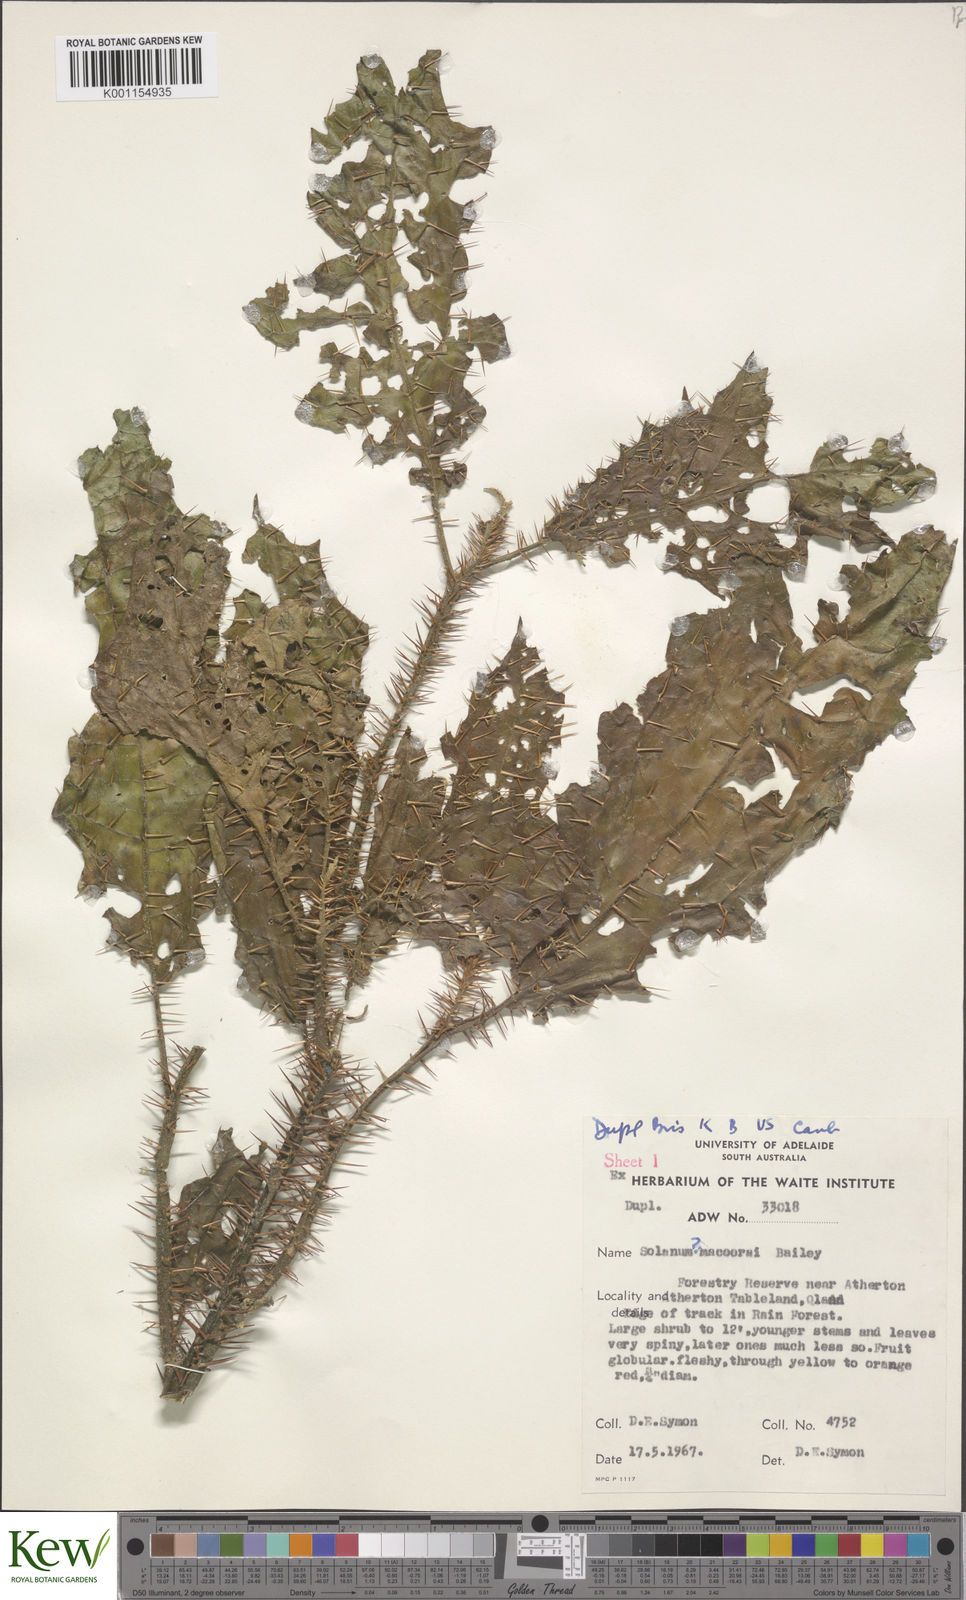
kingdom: Plantae
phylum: Tracheophyta
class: Magnoliopsida
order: Solanales
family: Solanaceae
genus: Solanum
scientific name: Solanum macoorai
